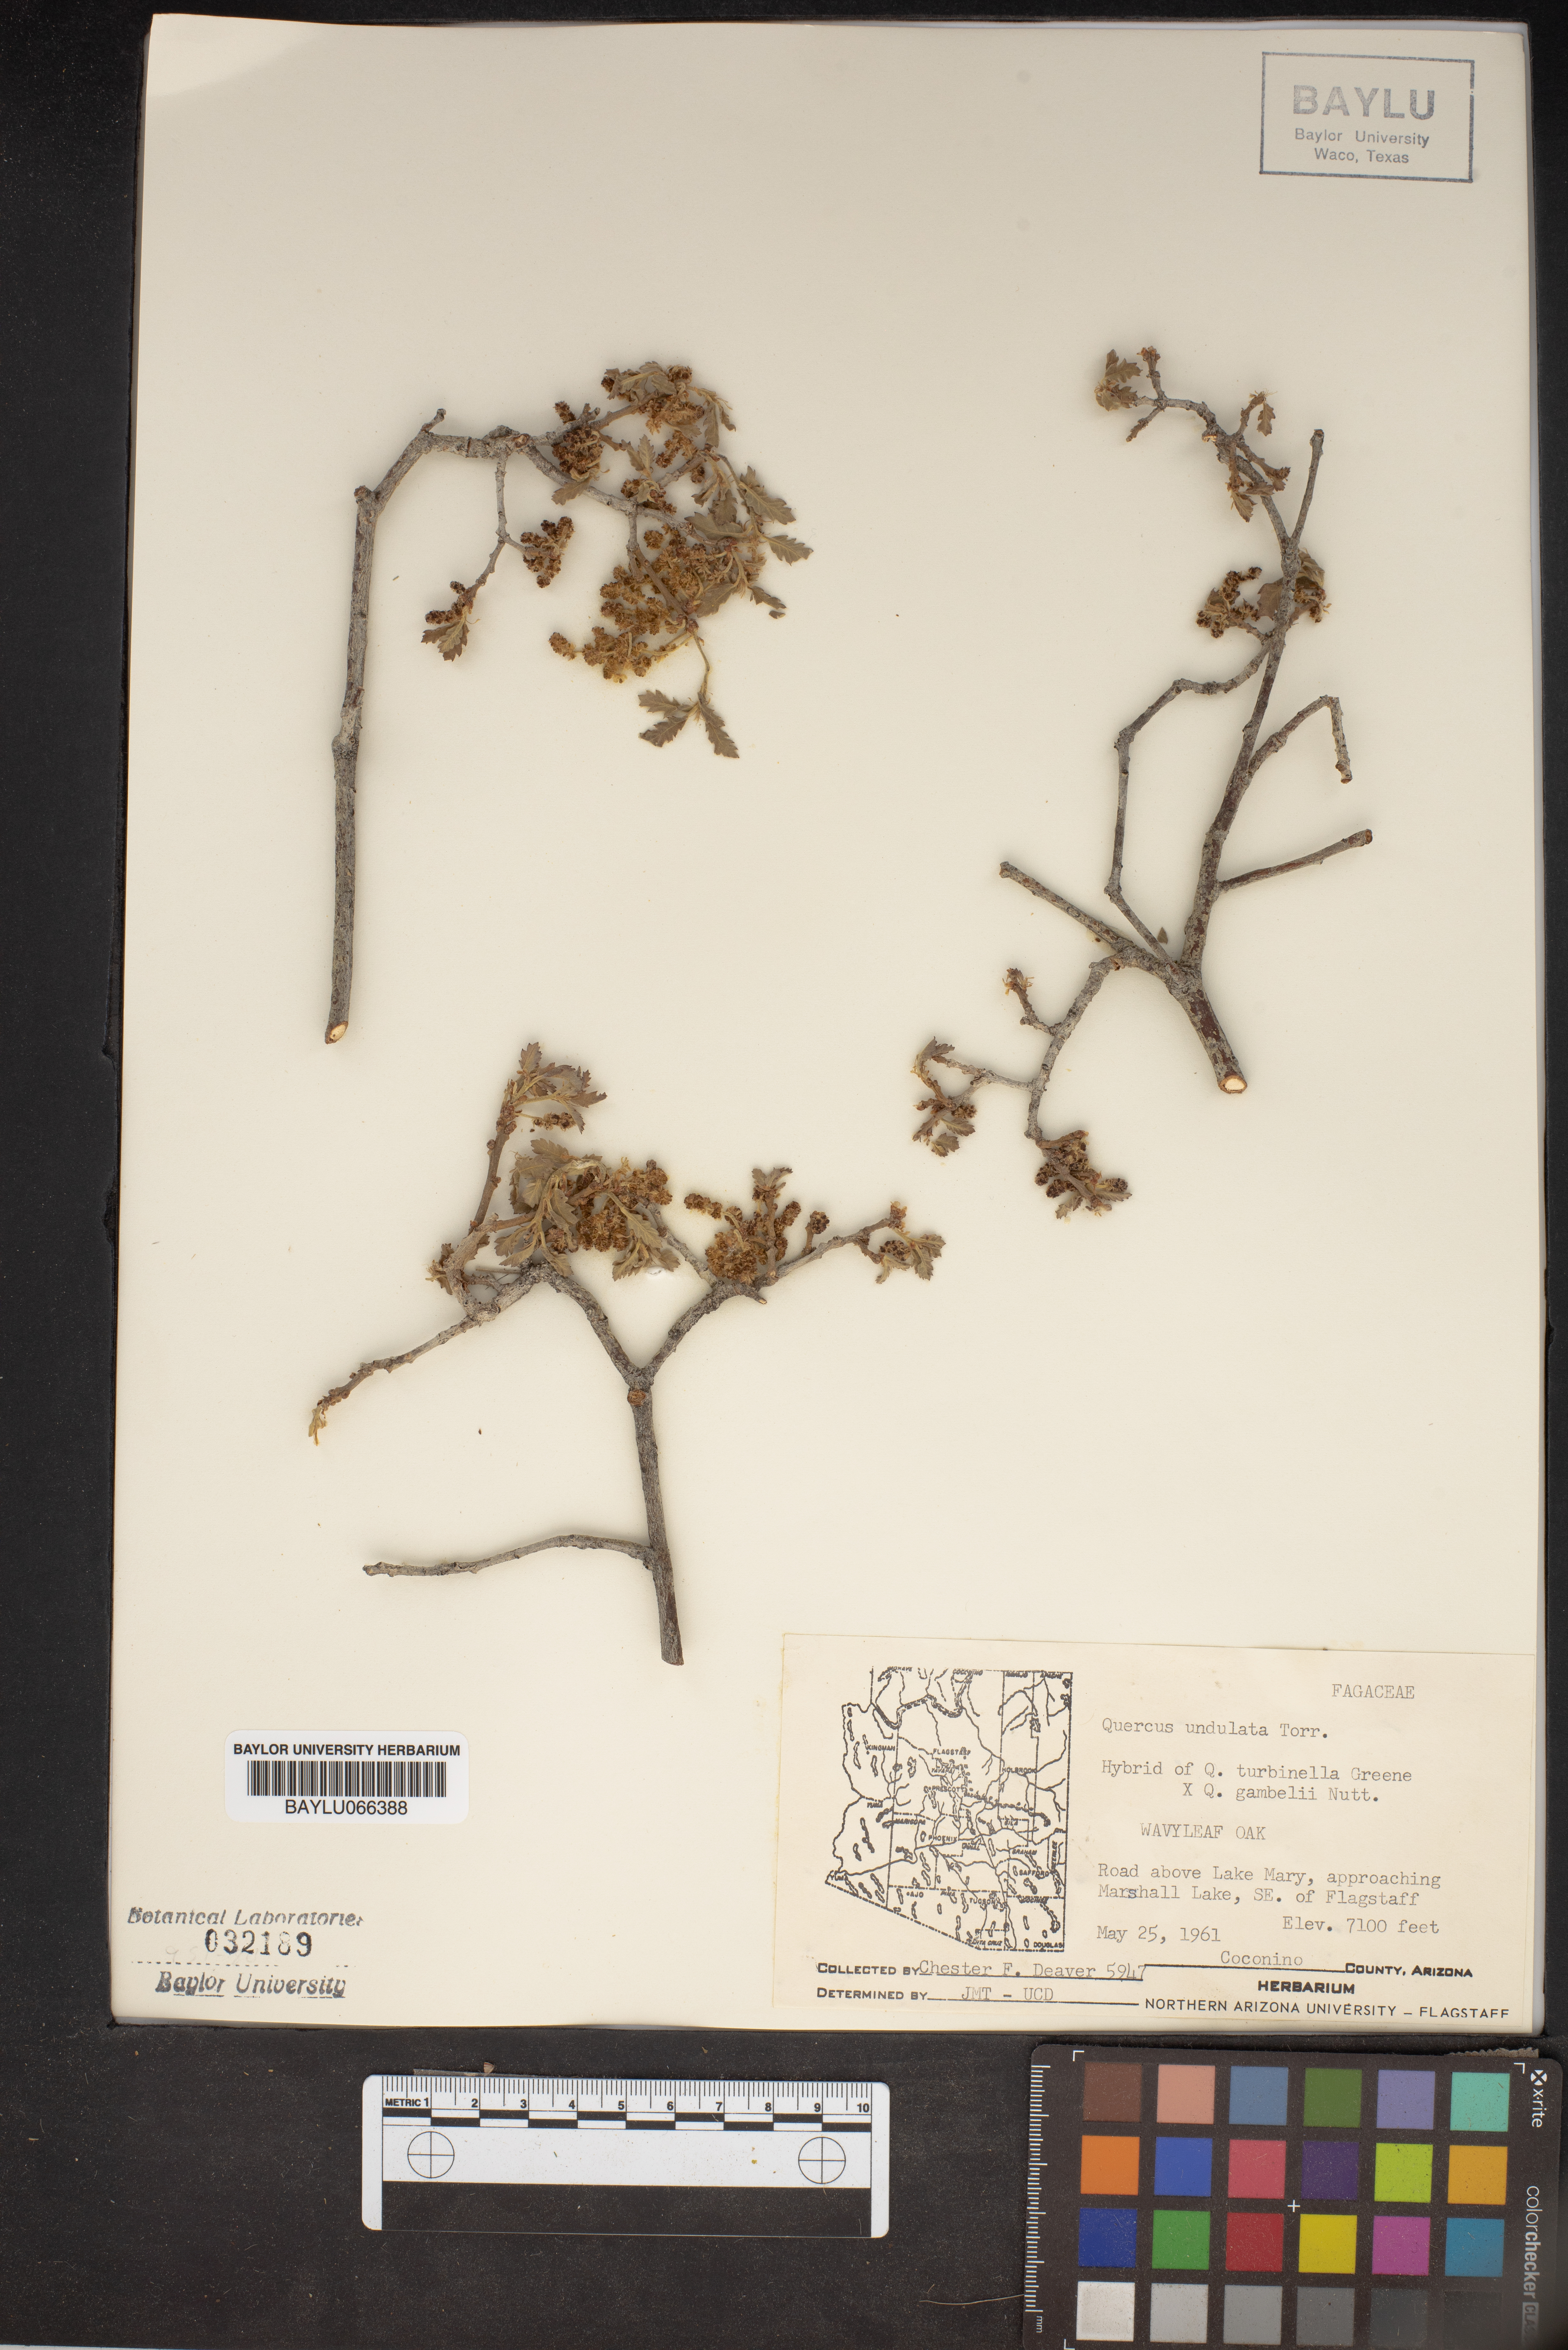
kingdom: Plantae
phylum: Tracheophyta
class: Magnoliopsida
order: Fagales
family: Fagaceae
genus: Quercus
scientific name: Quercus undulata
